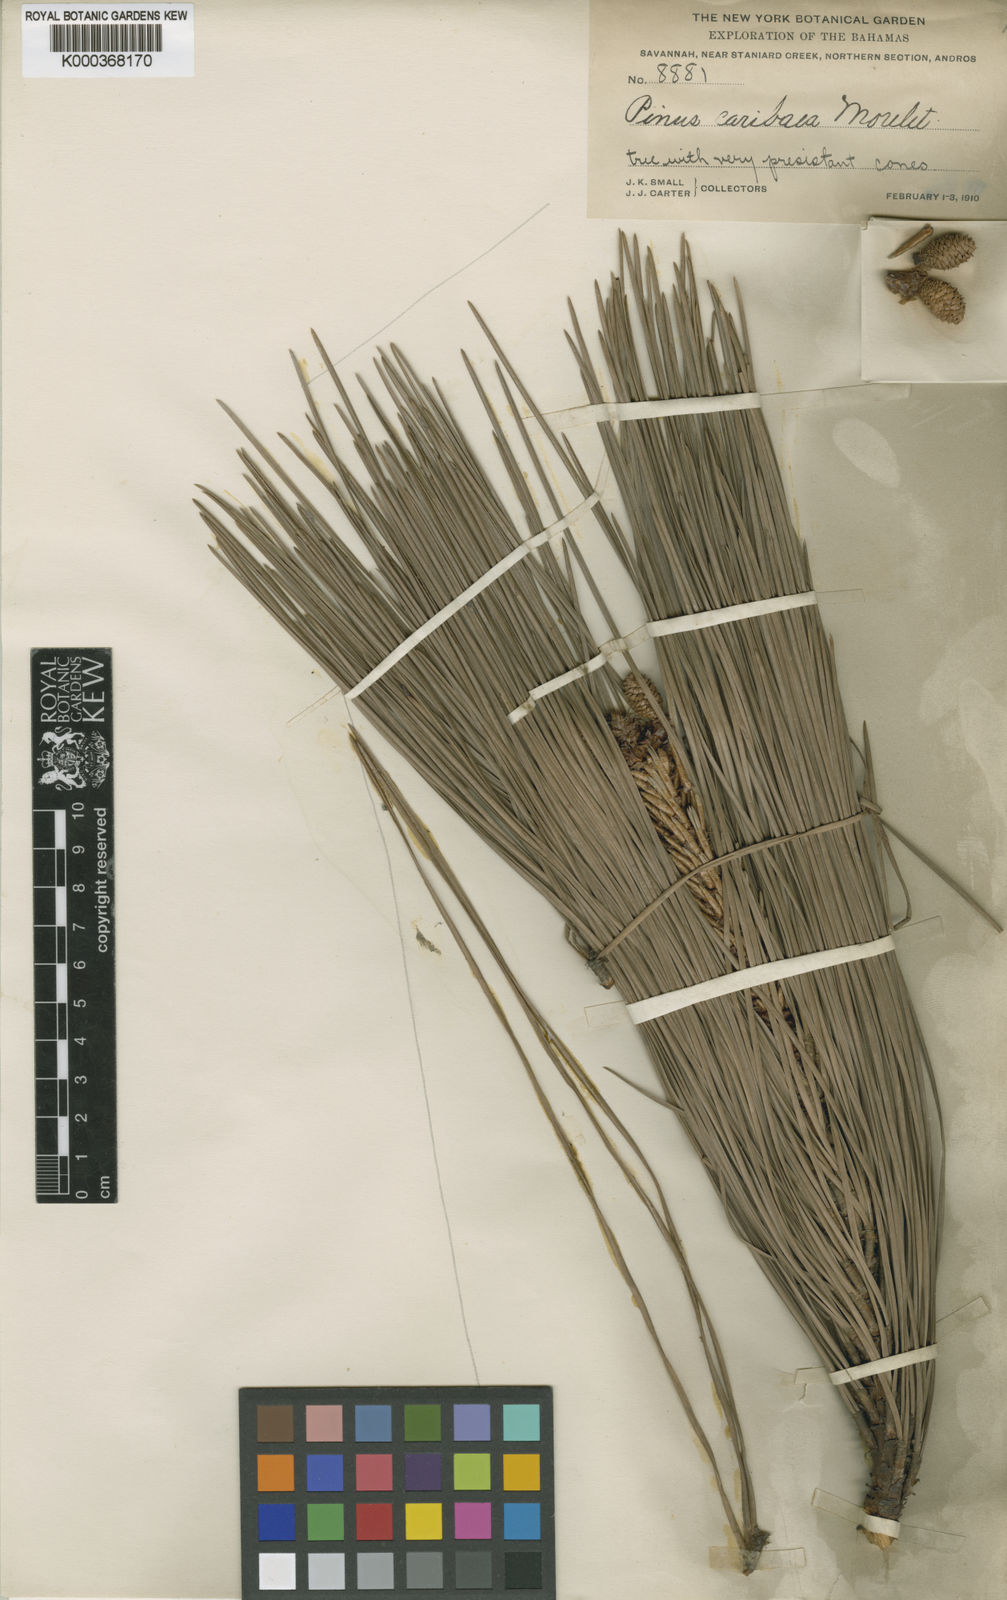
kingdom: Plantae
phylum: Tracheophyta
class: Pinopsida
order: Pinales
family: Pinaceae
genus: Pinus
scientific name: Pinus caribaea
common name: Caribbean pine
